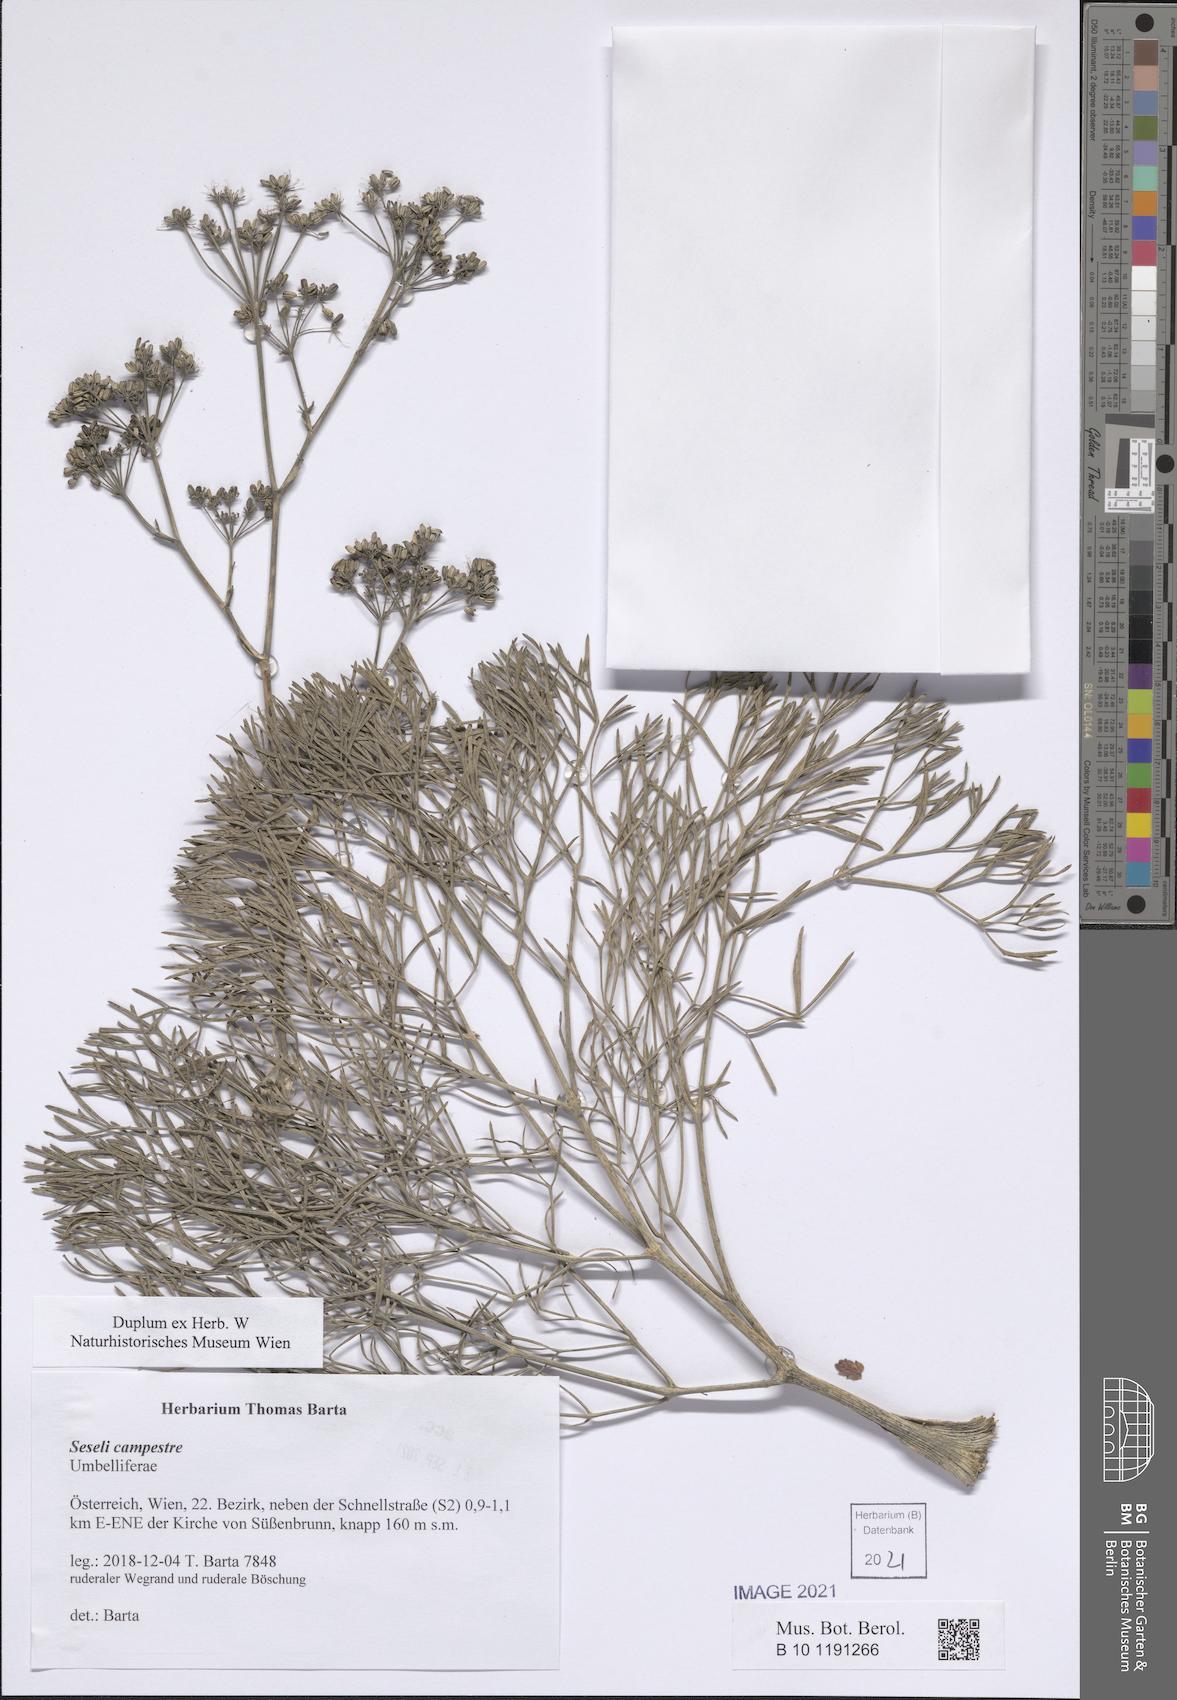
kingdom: Plantae
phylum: Tracheophyta
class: Magnoliopsida
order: Apiales
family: Apiaceae
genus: Seseli
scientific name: Seseli campestre
